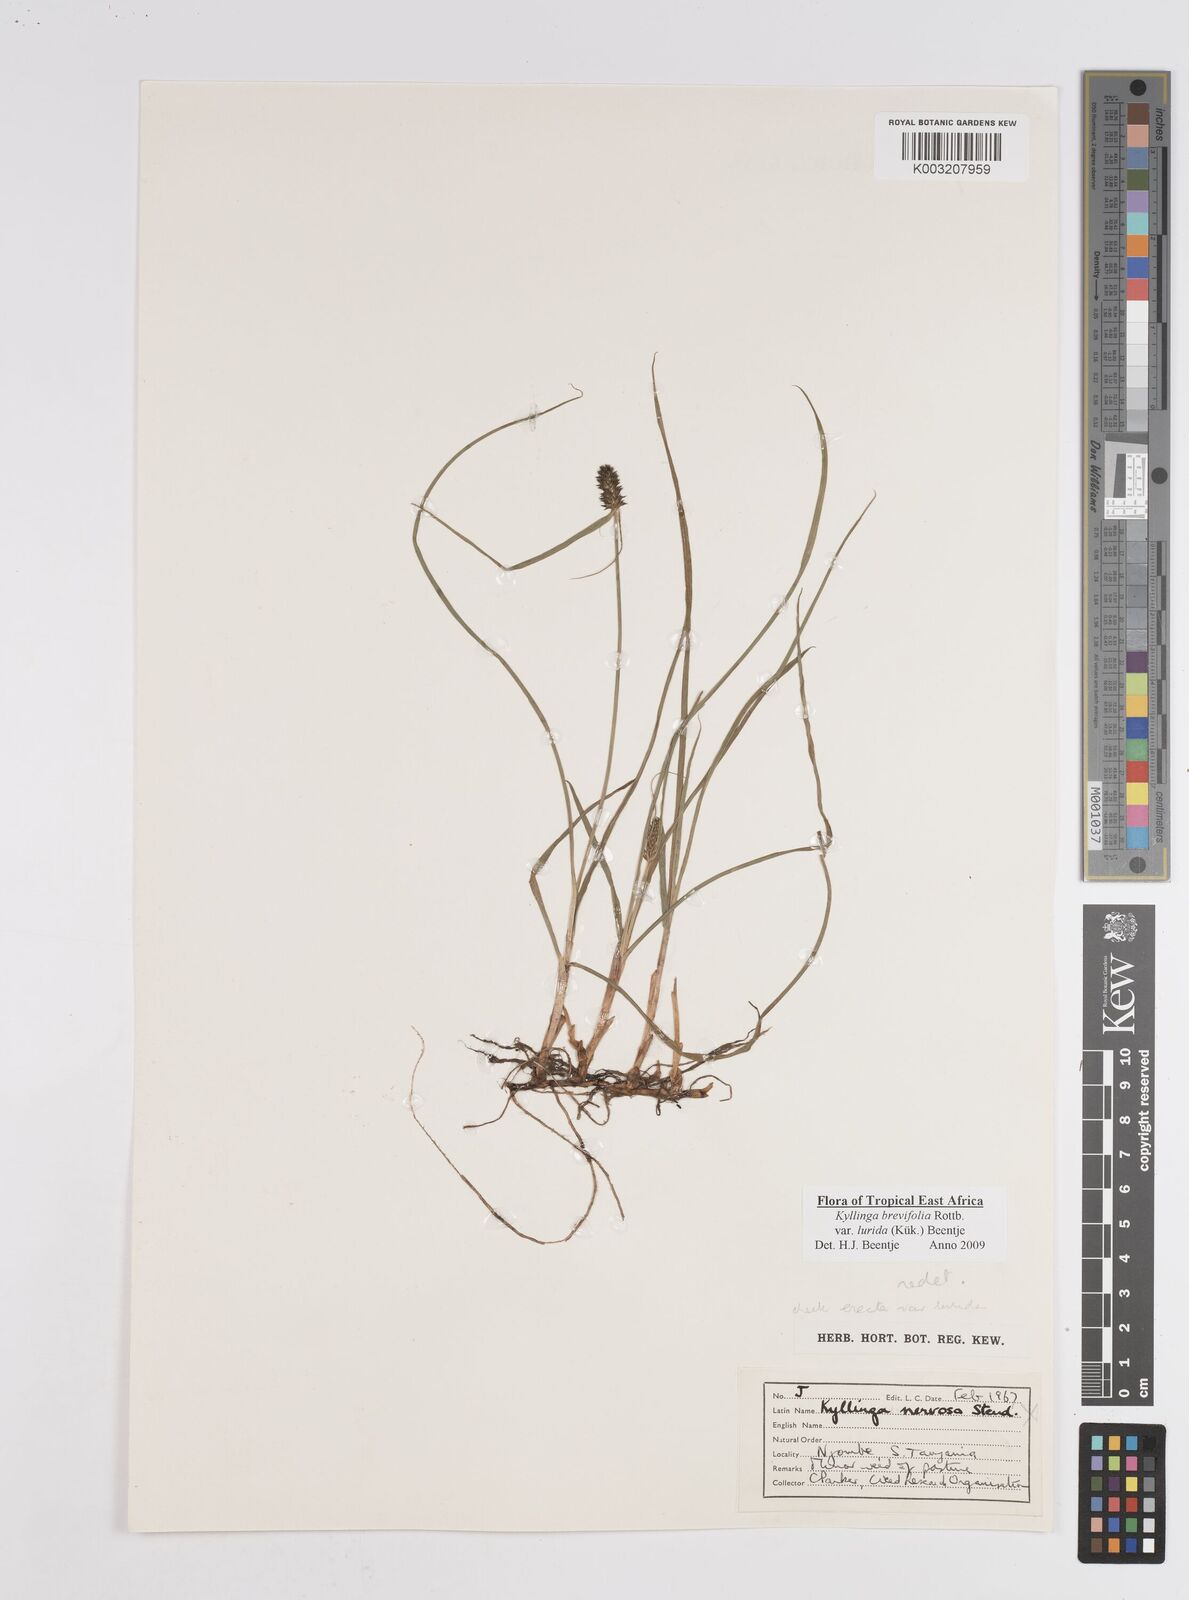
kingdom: Plantae
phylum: Tracheophyta
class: Liliopsida
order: Poales
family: Cyperaceae
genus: Cyperus
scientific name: Cyperus erectus
